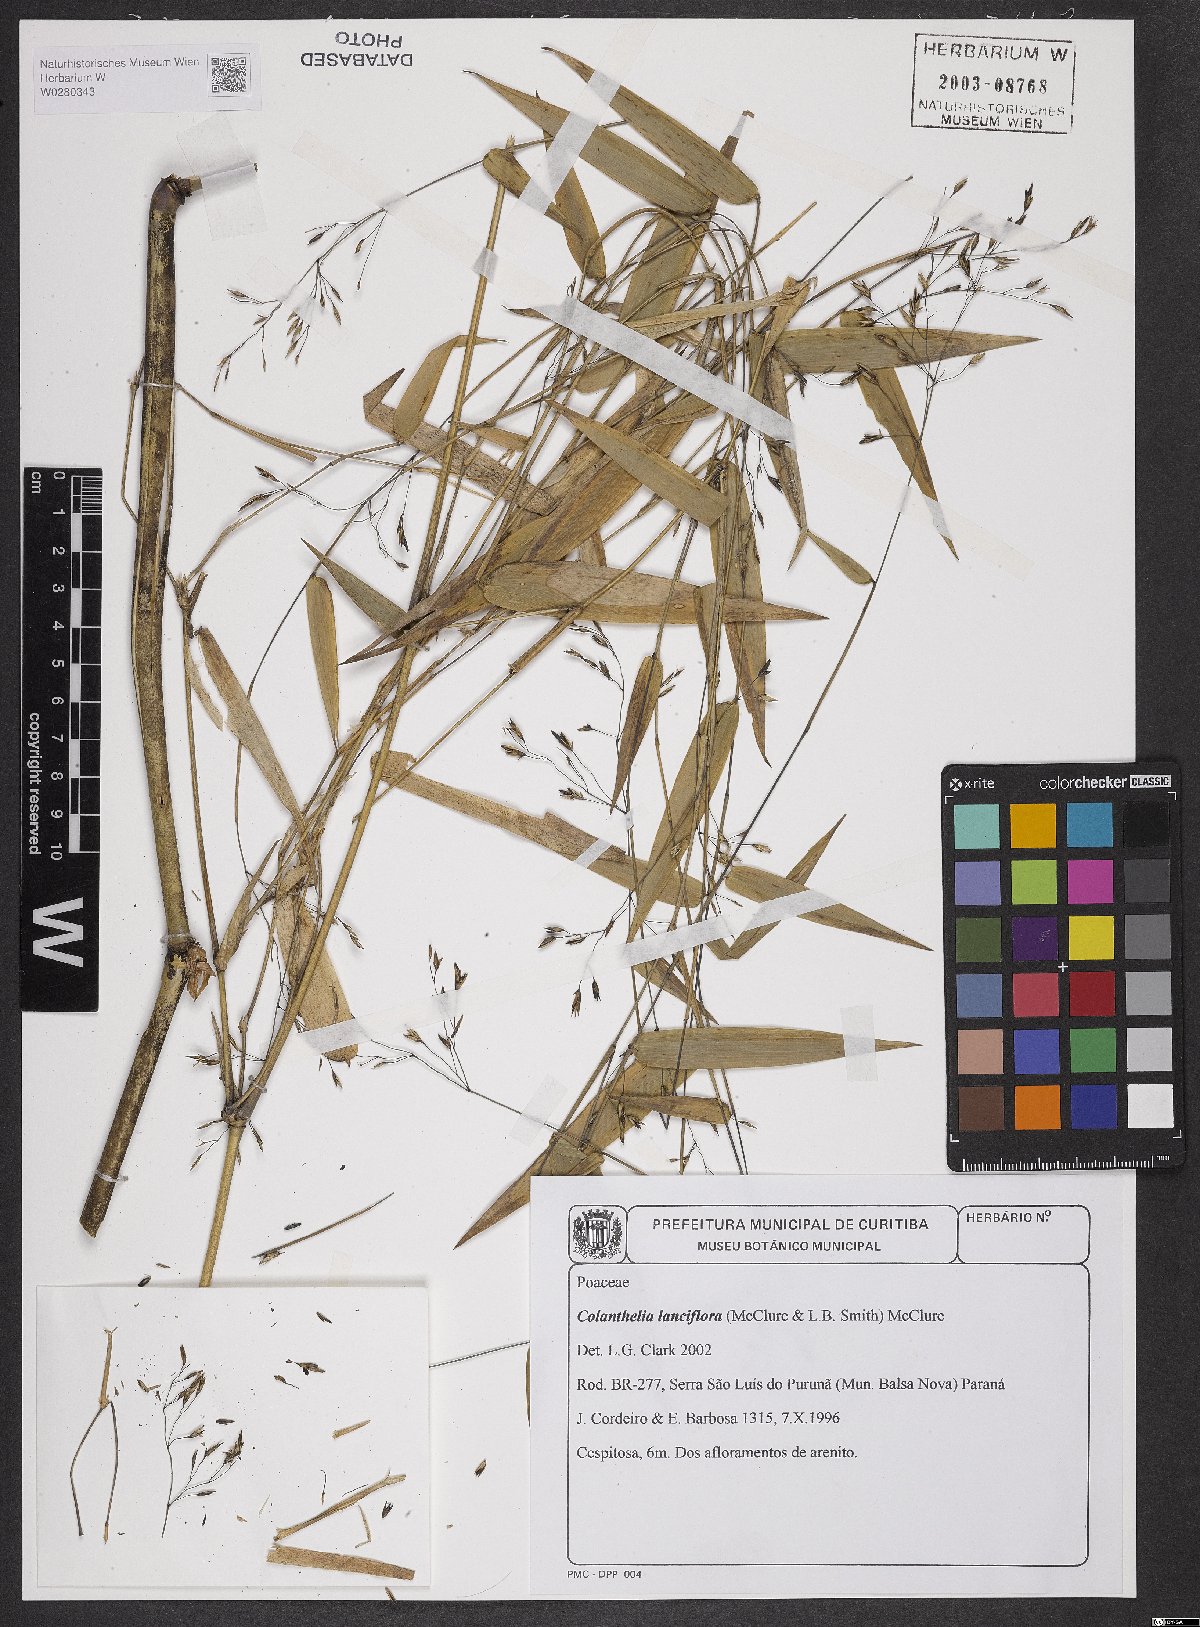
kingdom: Plantae
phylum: Tracheophyta
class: Liliopsida
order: Poales
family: Poaceae
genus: Colanthelia
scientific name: Colanthelia lanciflora
